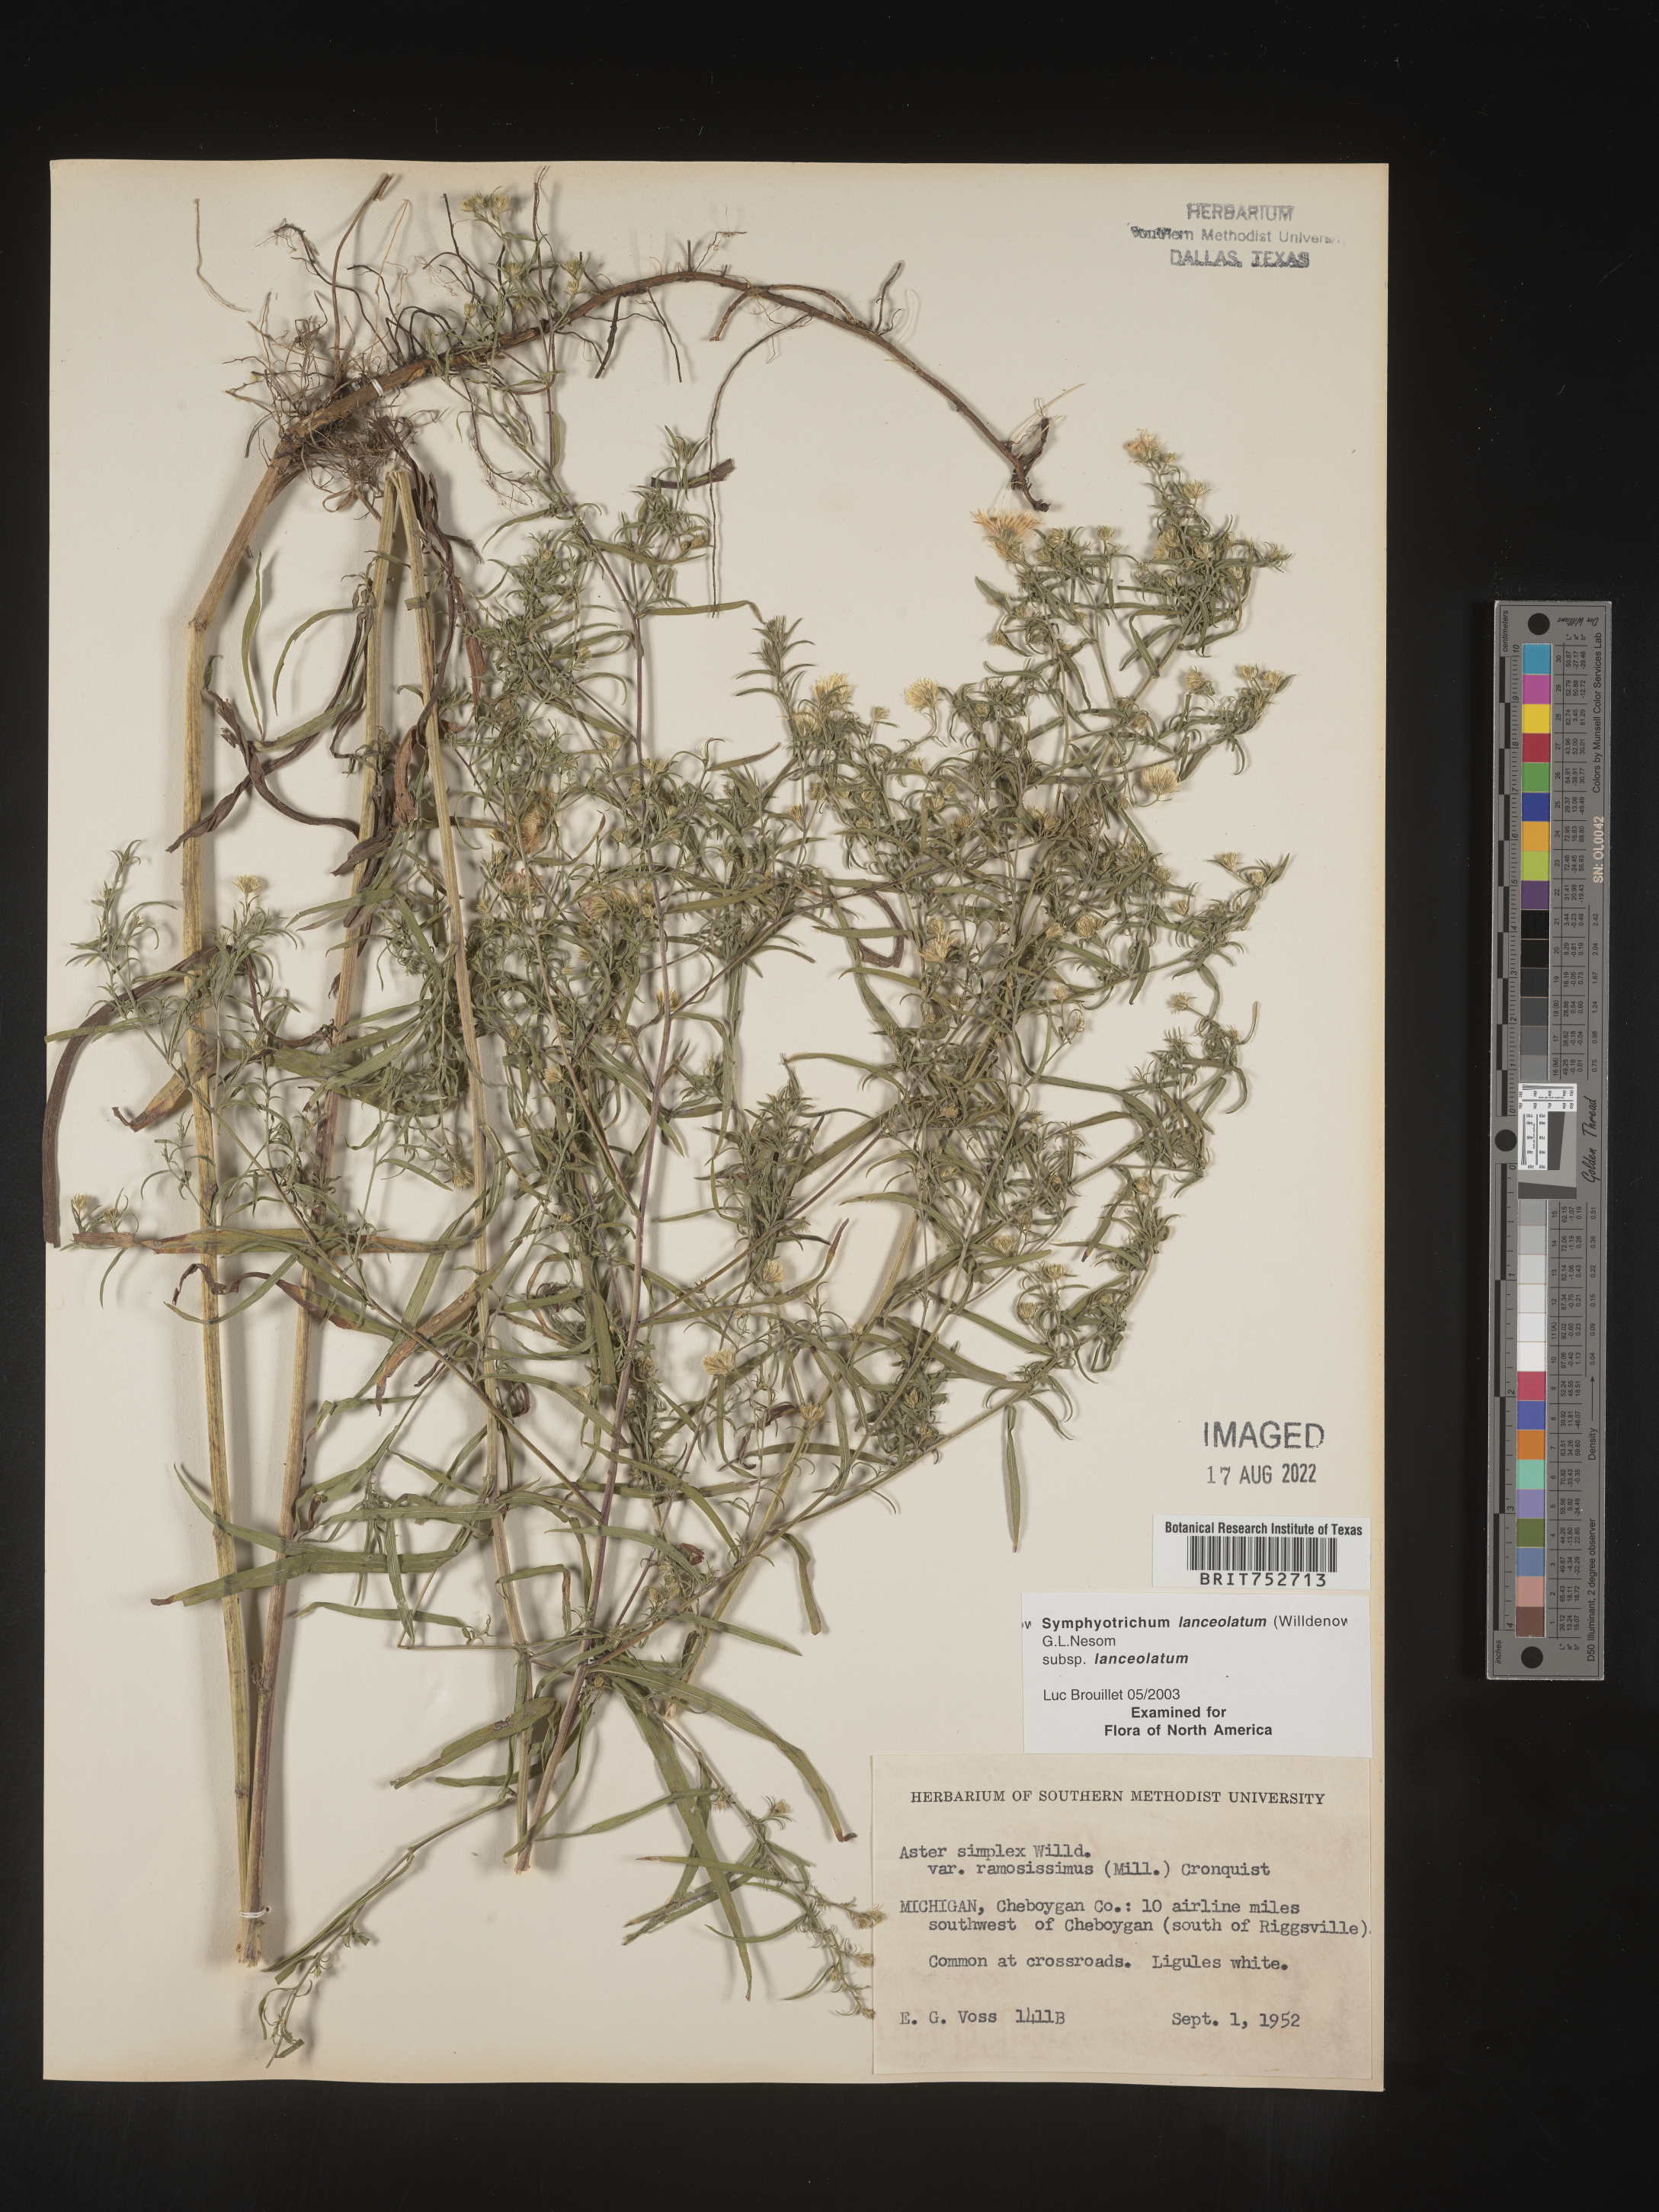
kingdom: Plantae
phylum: Tracheophyta
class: Magnoliopsida
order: Asterales
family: Asteraceae
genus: Symphyotrichum
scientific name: Symphyotrichum lanceolatum
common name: Panicled aster
